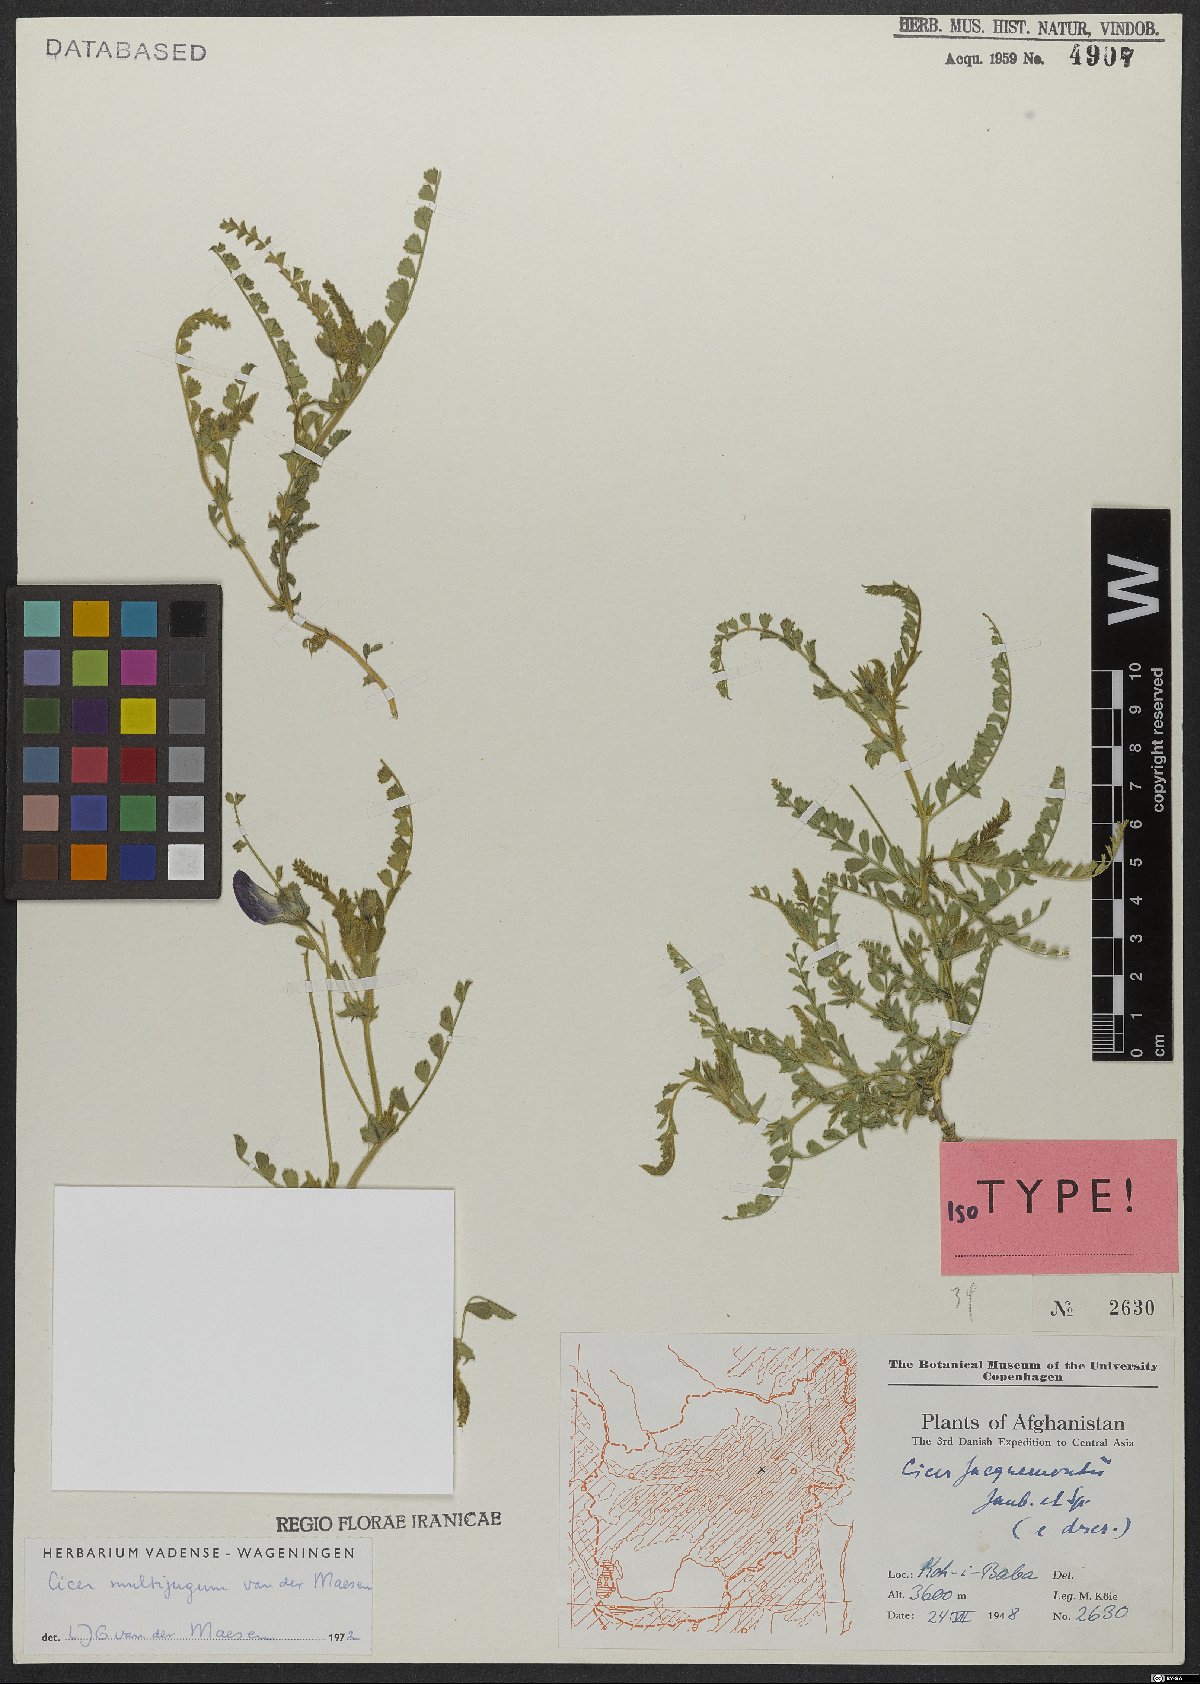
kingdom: Plantae
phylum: Tracheophyta
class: Magnoliopsida
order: Fabales
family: Fabaceae
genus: Cicer
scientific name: Cicer multijugum
